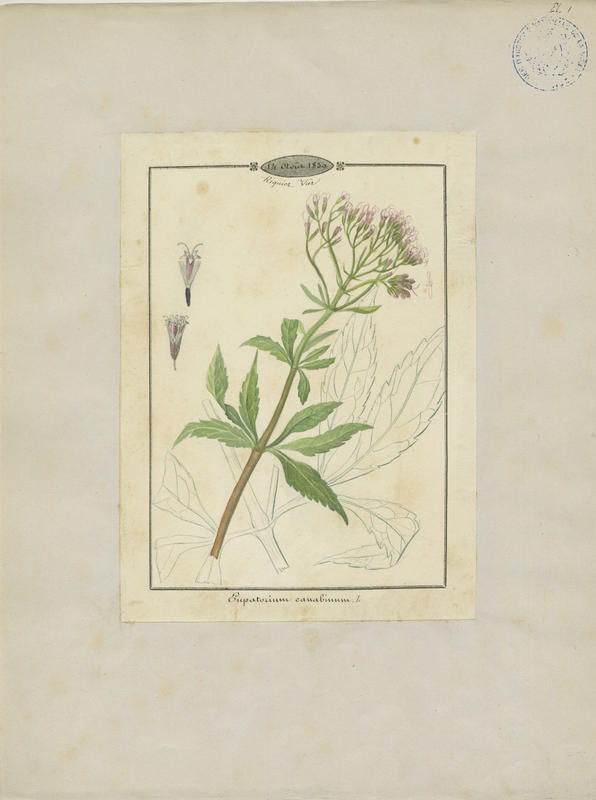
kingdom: Plantae
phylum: Tracheophyta
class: Magnoliopsida
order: Asterales
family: Asteraceae
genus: Eupatorium
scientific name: Eupatorium cannabinum
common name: Hemp-agrimony
